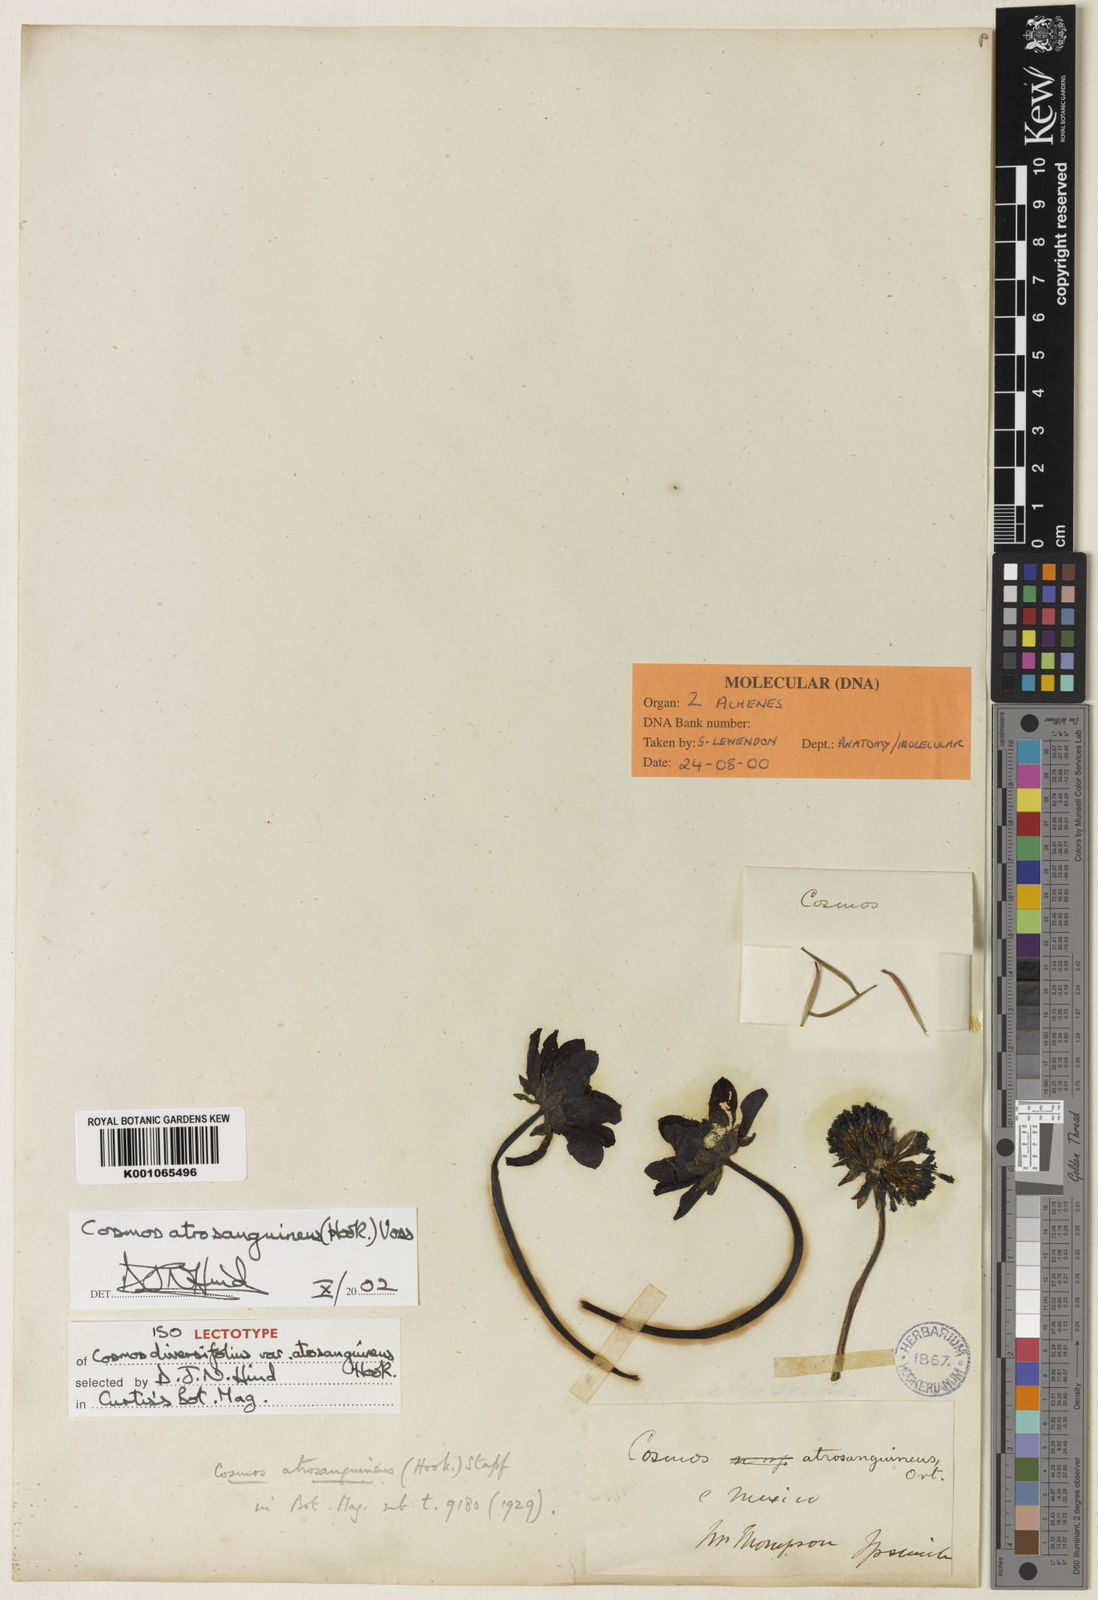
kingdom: Plantae
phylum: Tracheophyta
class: Magnoliopsida
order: Asterales
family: Asteraceae
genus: Cosmos
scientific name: Cosmos atrosanguineus
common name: Chocolate cosmos
